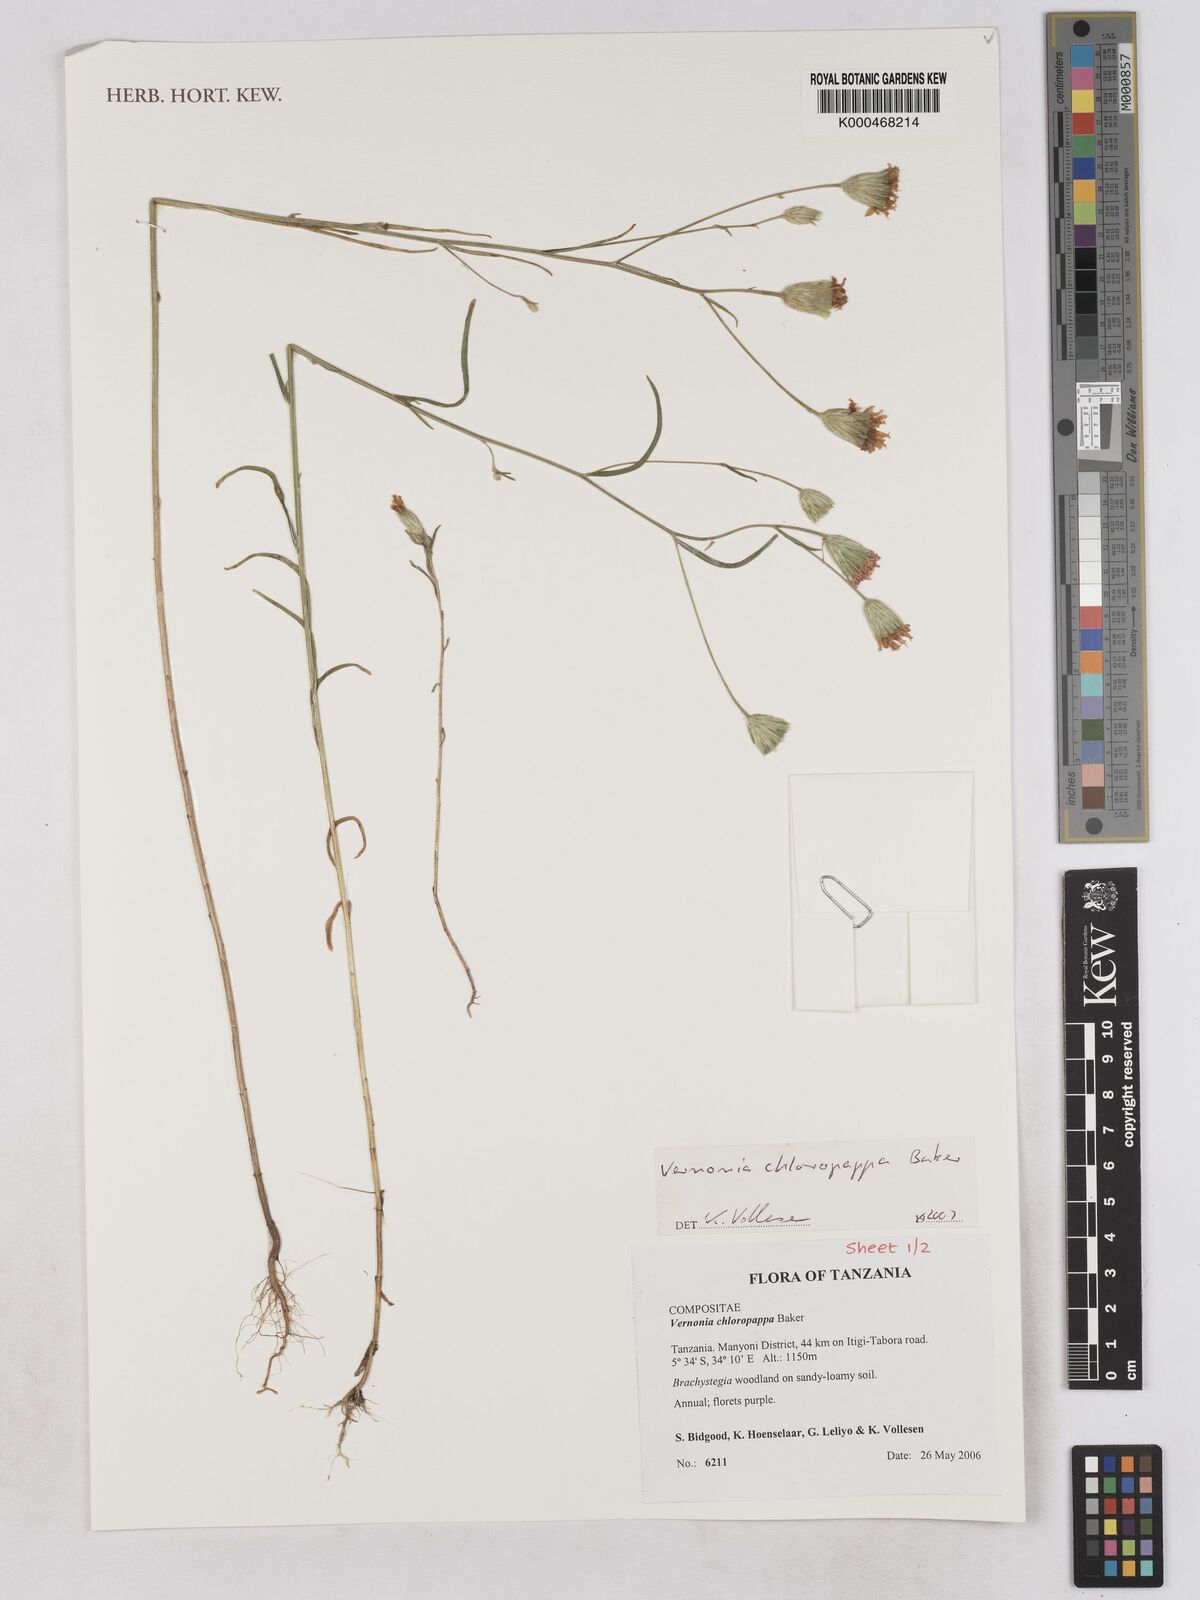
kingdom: Plantae
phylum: Tracheophyta
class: Magnoliopsida
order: Asterales
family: Asteraceae
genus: Crystallopollen
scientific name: Crystallopollen chloropappum
